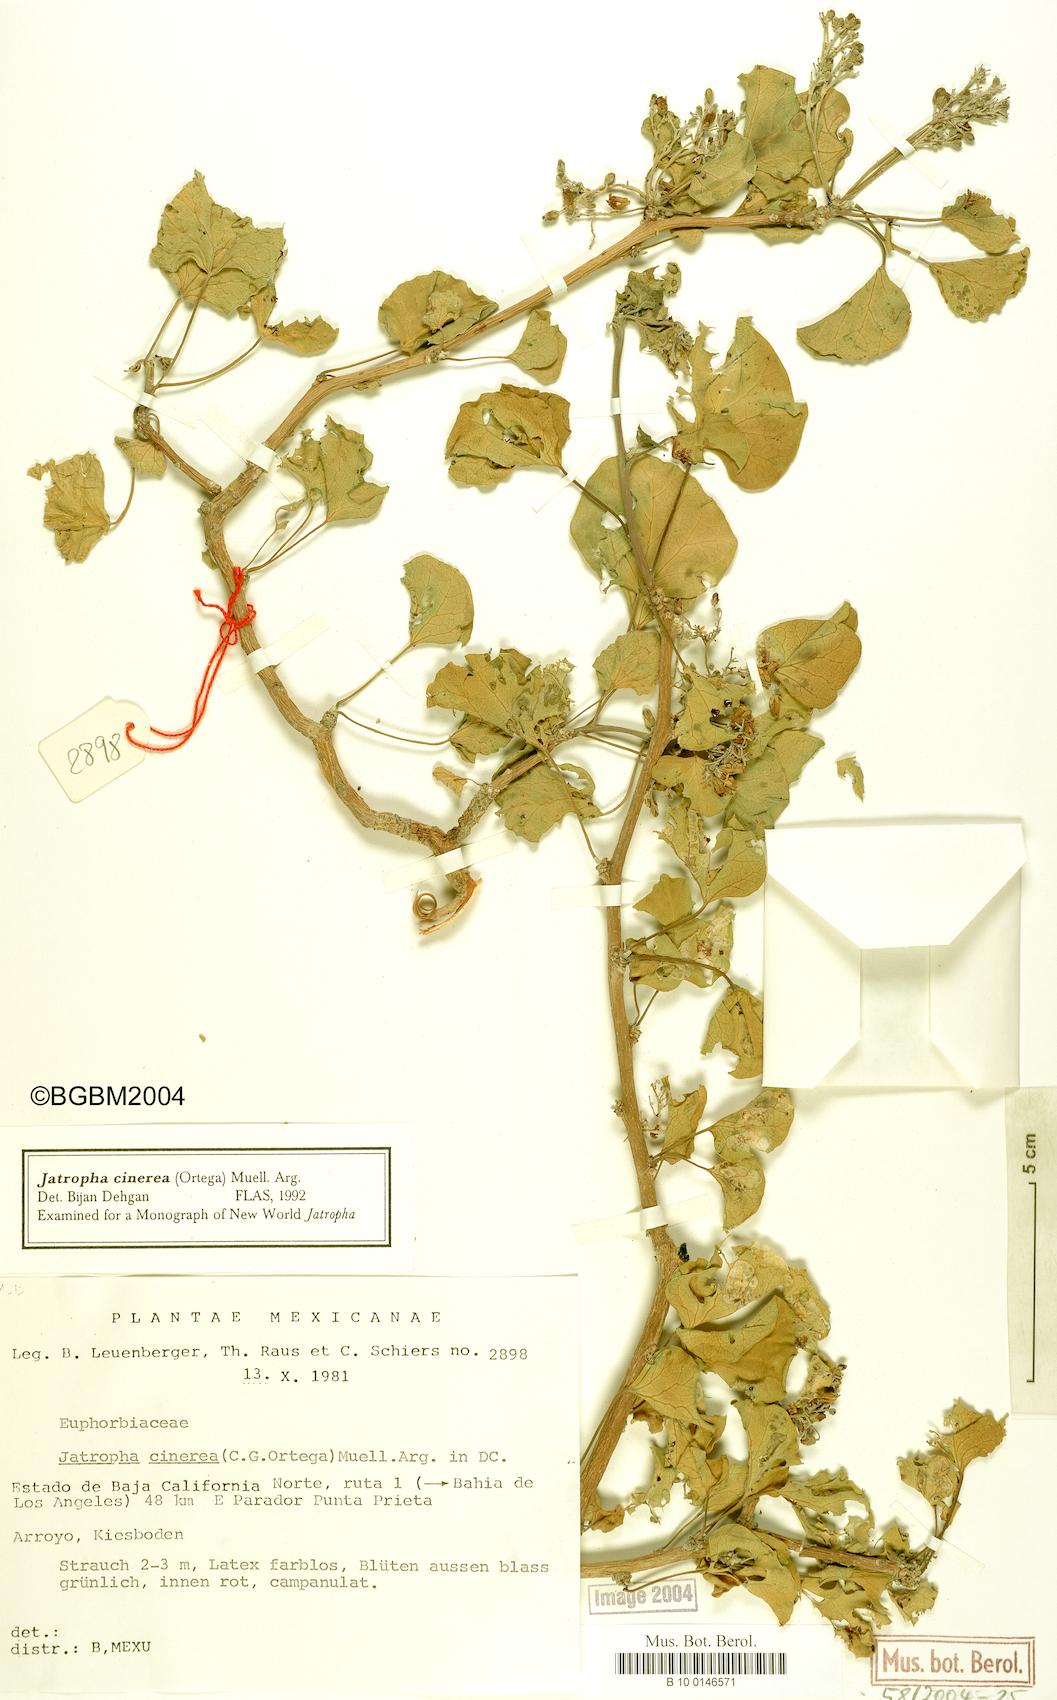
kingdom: Plantae
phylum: Tracheophyta
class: Magnoliopsida
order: Malpighiales
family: Euphorbiaceae
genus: Jatropha
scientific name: Jatropha cinerea
